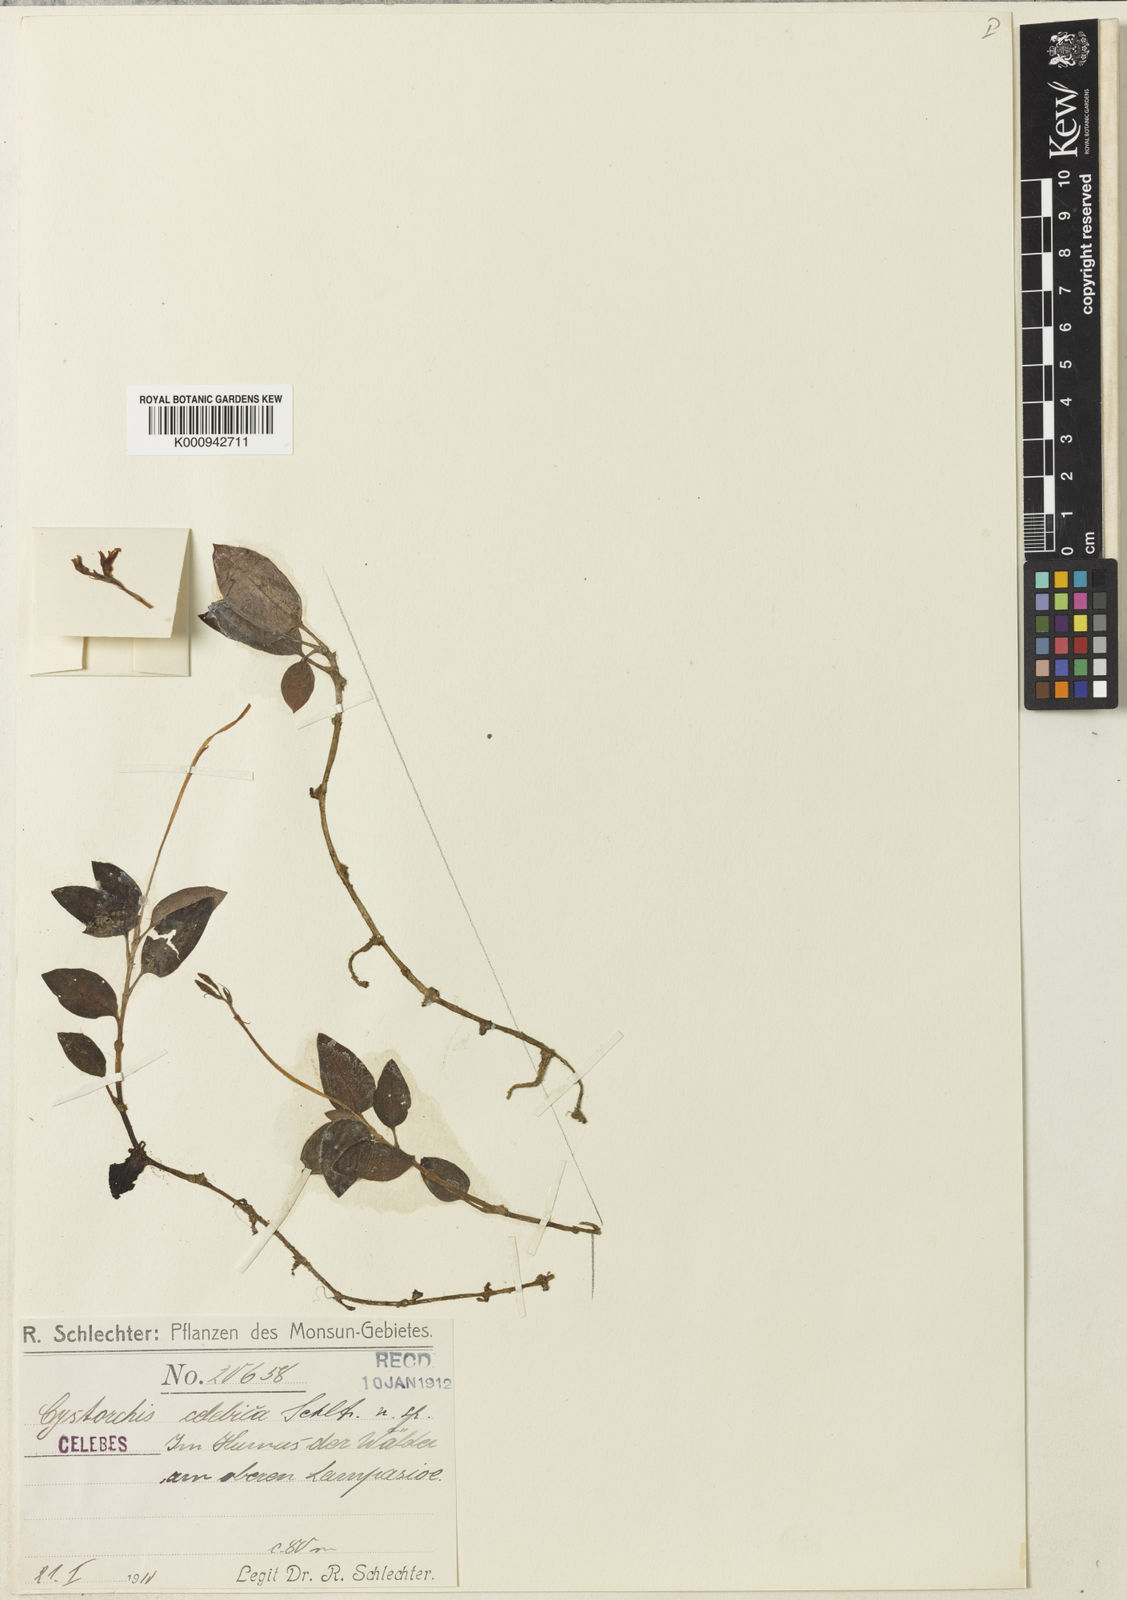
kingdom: Plantae
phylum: Tracheophyta
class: Liliopsida
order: Asparagales
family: Orchidaceae
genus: Cystorchis
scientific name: Cystorchis celebica
